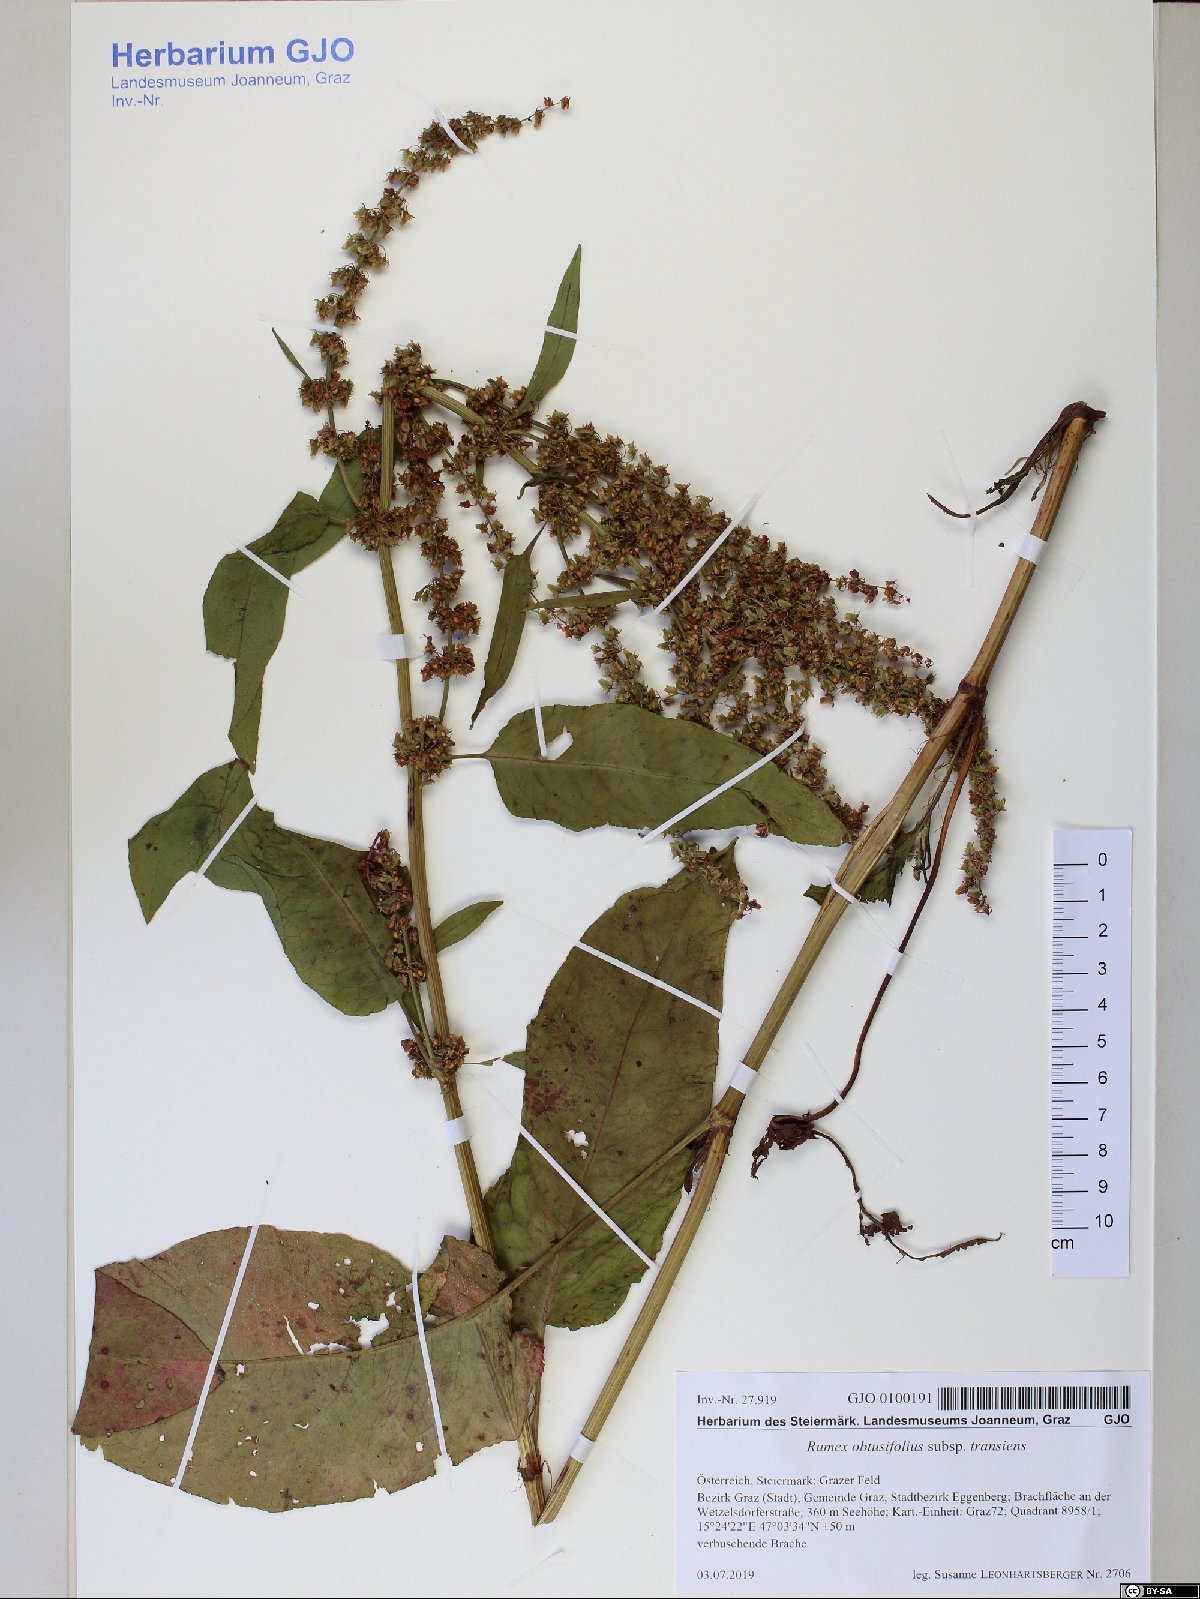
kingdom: Plantae
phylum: Tracheophyta
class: Magnoliopsida
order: Caryophyllales
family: Polygonaceae
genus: Rumex
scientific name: Rumex obtusifolius
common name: Bitter dock
